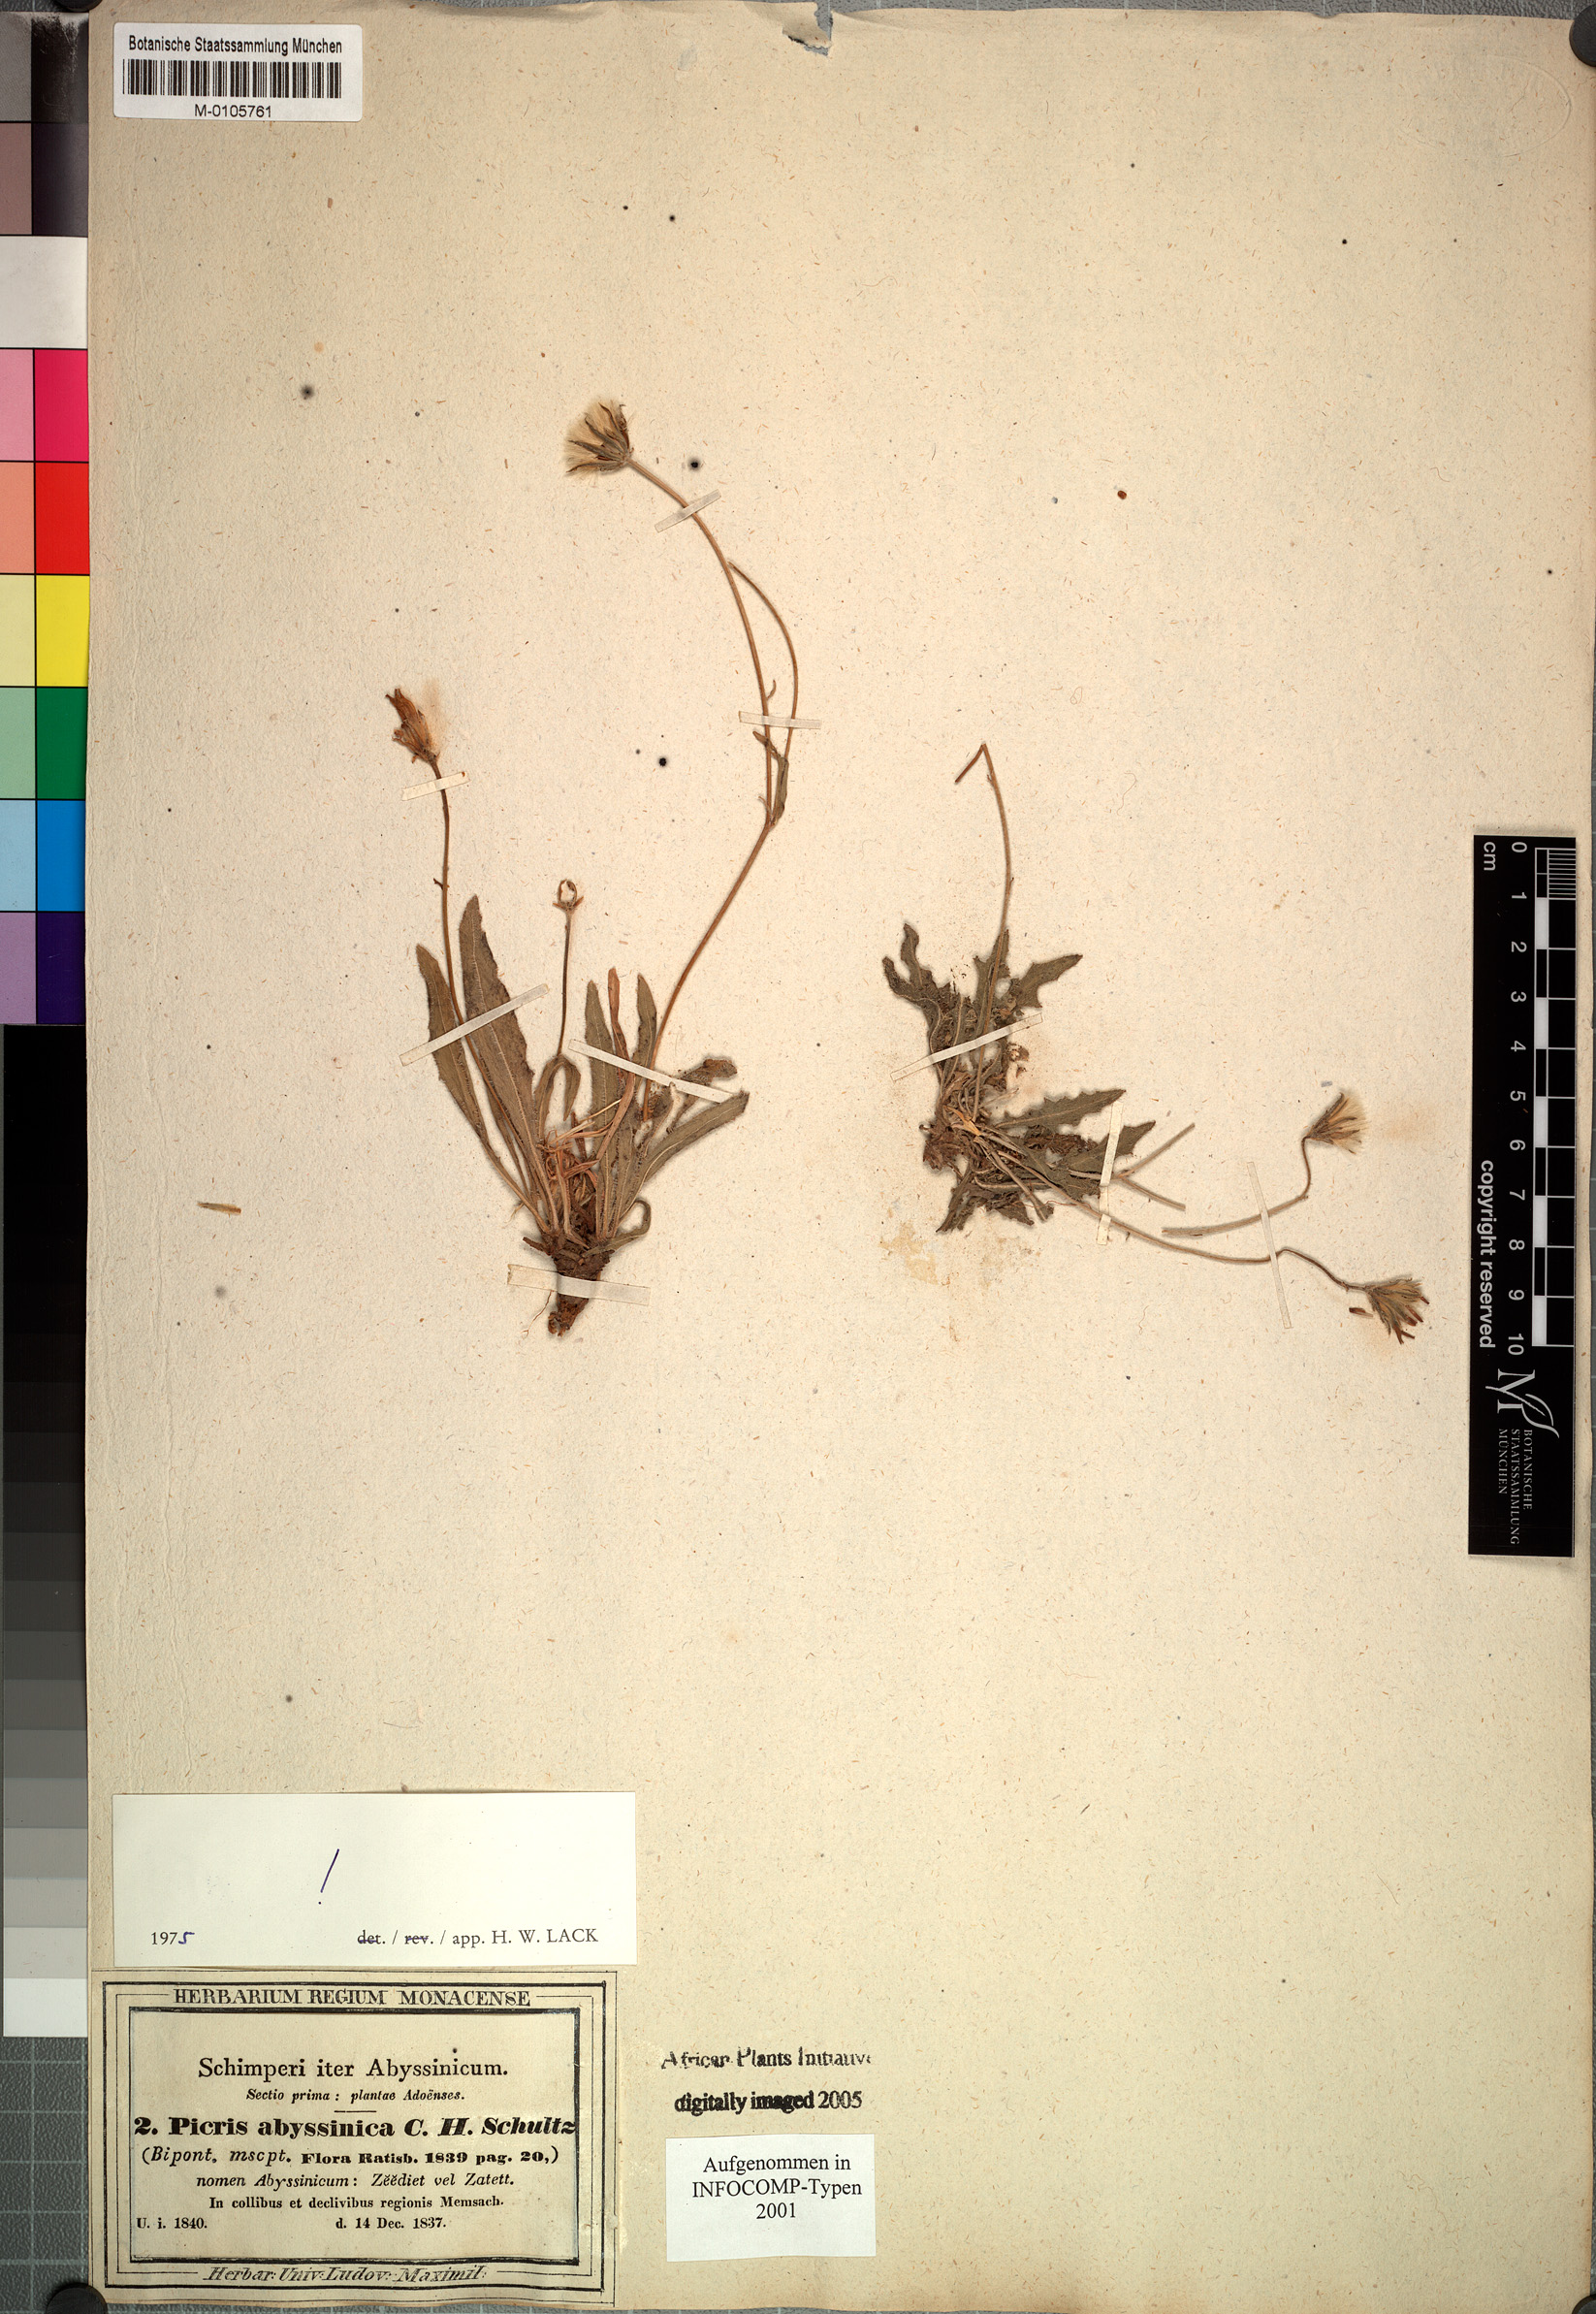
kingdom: Plantae
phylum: Tracheophyta
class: Magnoliopsida
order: Asterales
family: Asteraceae
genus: Picris
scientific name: Picris scabra
